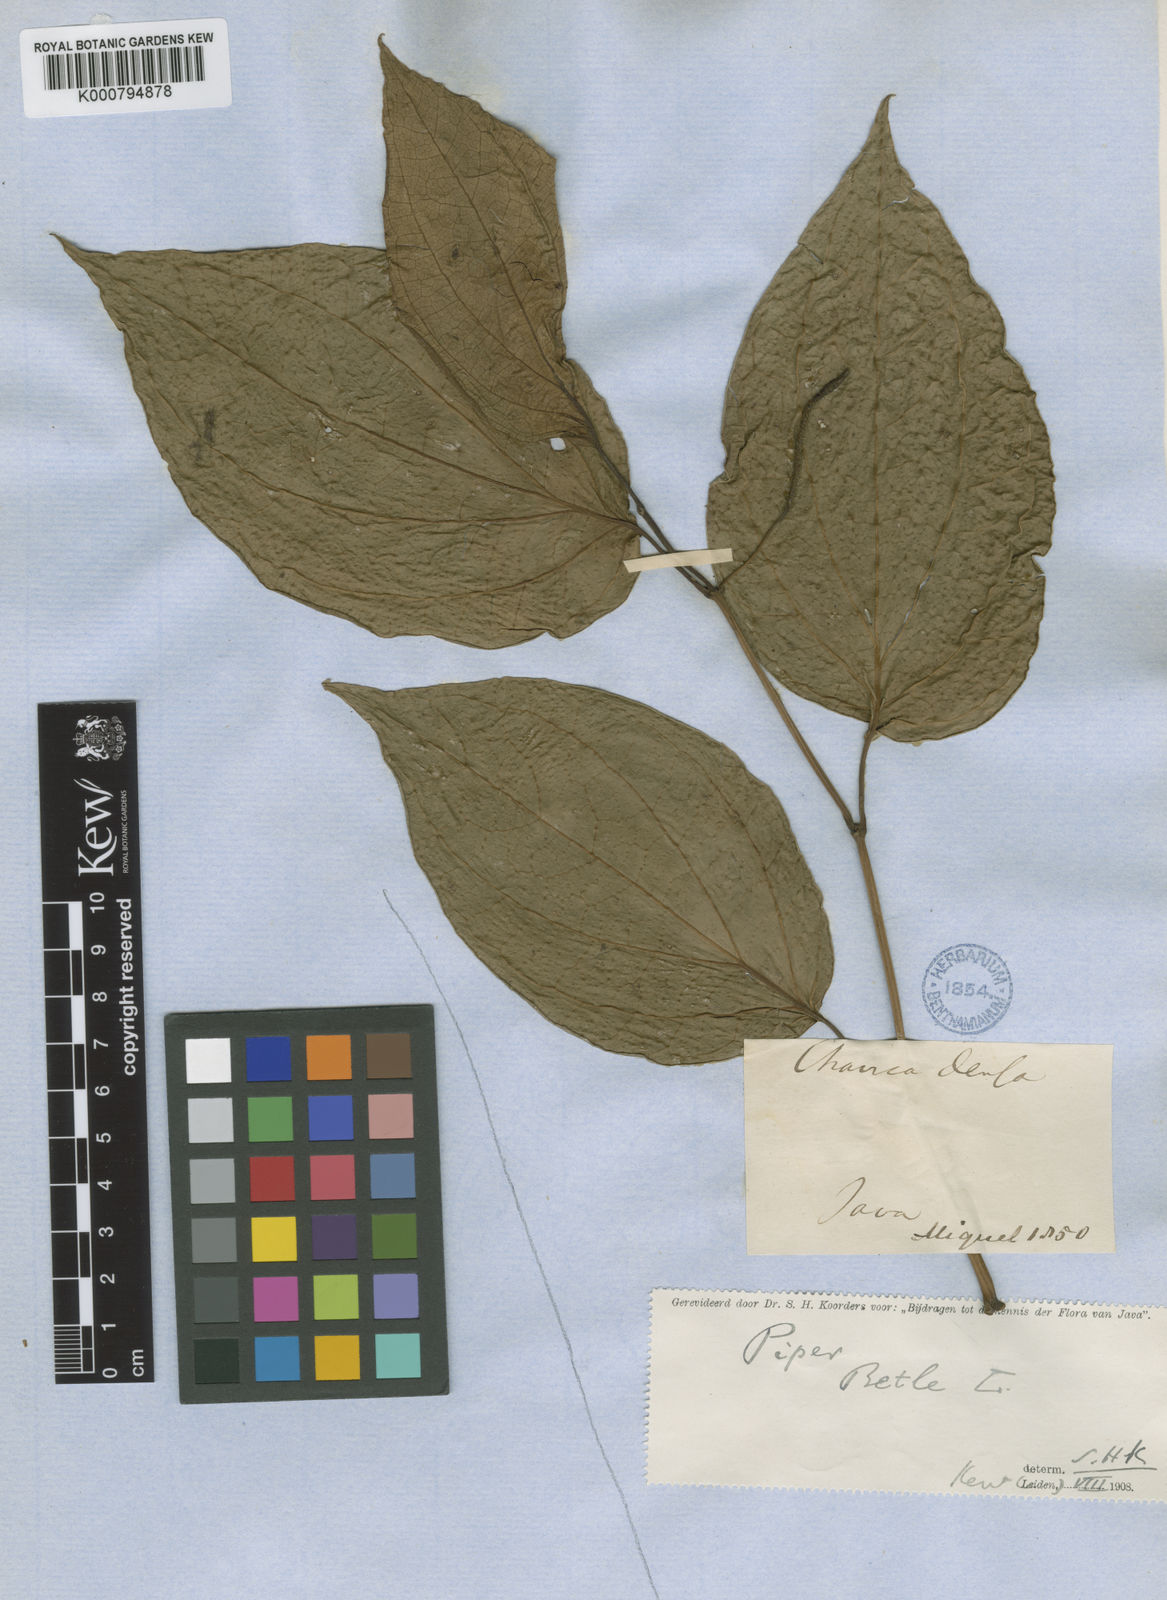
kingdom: Plantae
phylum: Tracheophyta
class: Magnoliopsida
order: Piperales
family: Piperaceae
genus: Piper
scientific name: Piper betle
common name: Betel pepper
